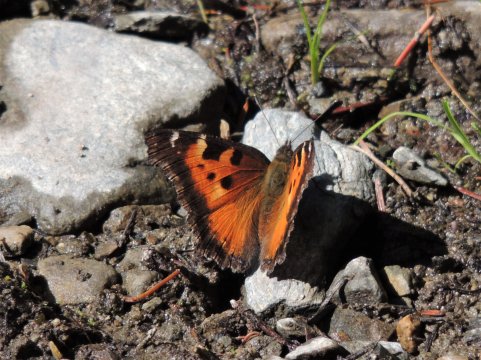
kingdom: Animalia
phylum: Arthropoda
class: Insecta
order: Lepidoptera
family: Nymphalidae
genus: Nymphalis
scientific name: Nymphalis californica
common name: California Tortoiseshell
